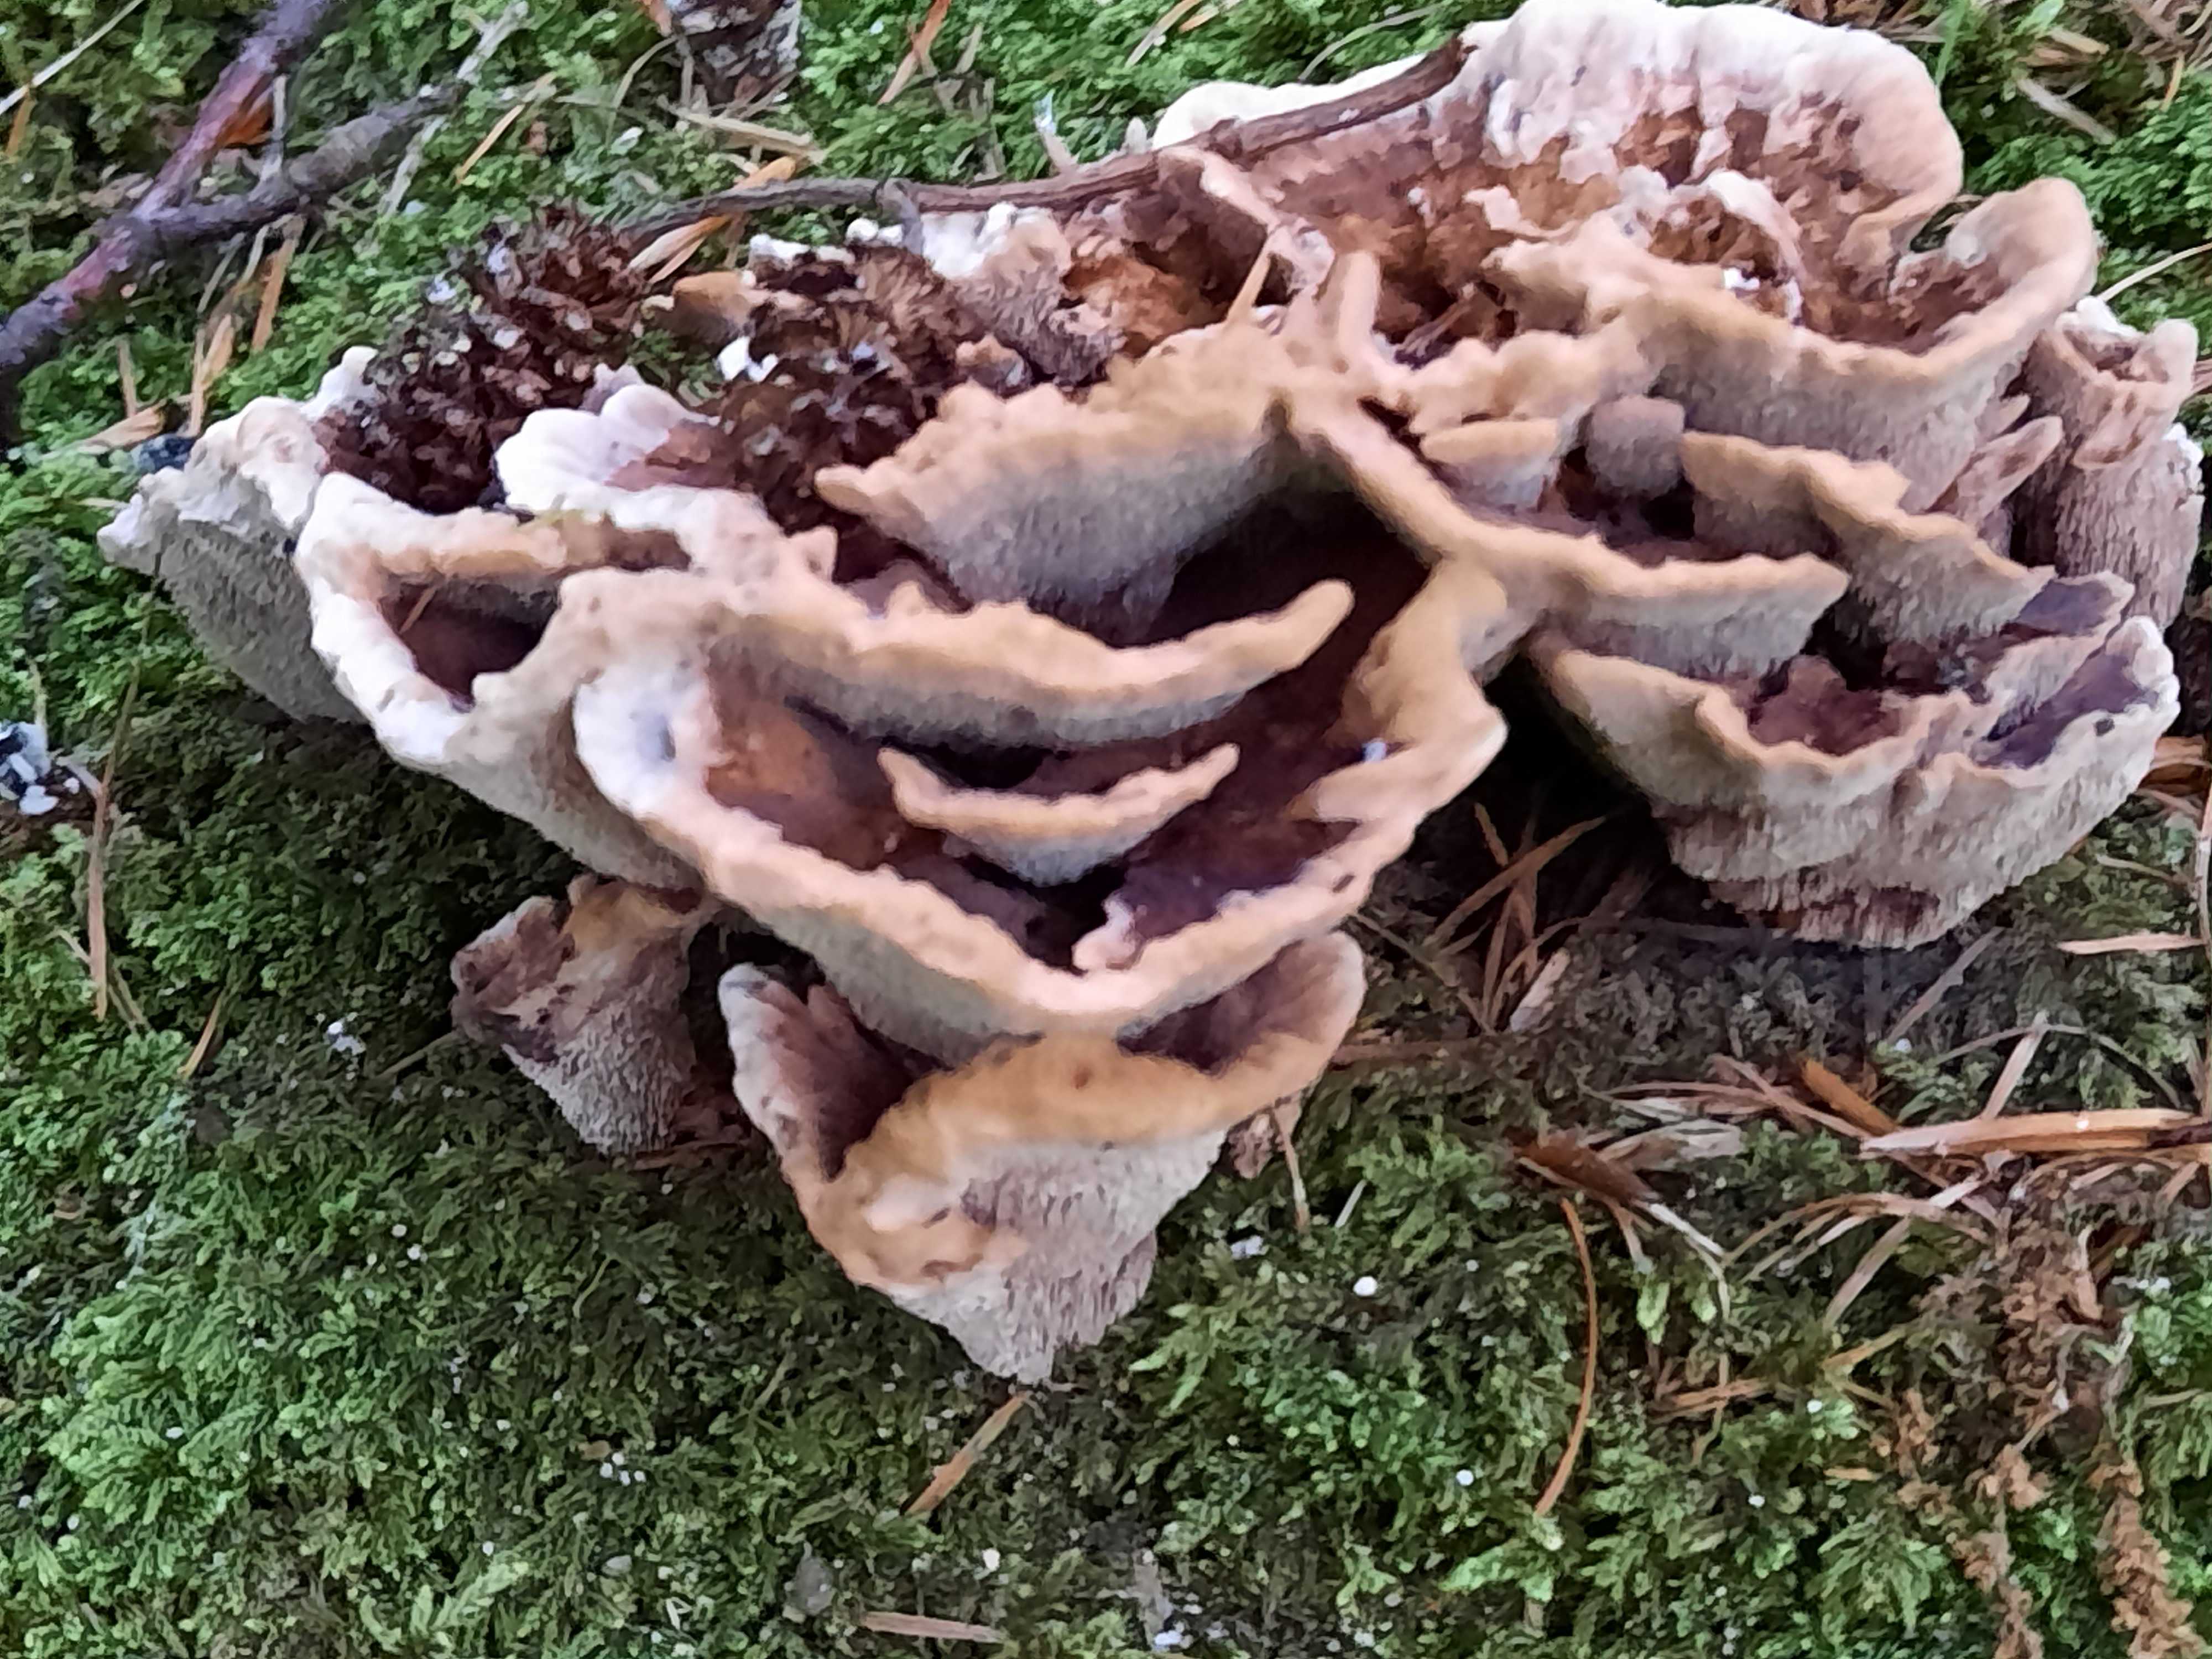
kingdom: Fungi
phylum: Basidiomycota
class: Agaricomycetes
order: Thelephorales
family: Bankeraceae
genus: Hydnellum
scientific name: Hydnellum concrescens
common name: bæltet korkpigsvamp
